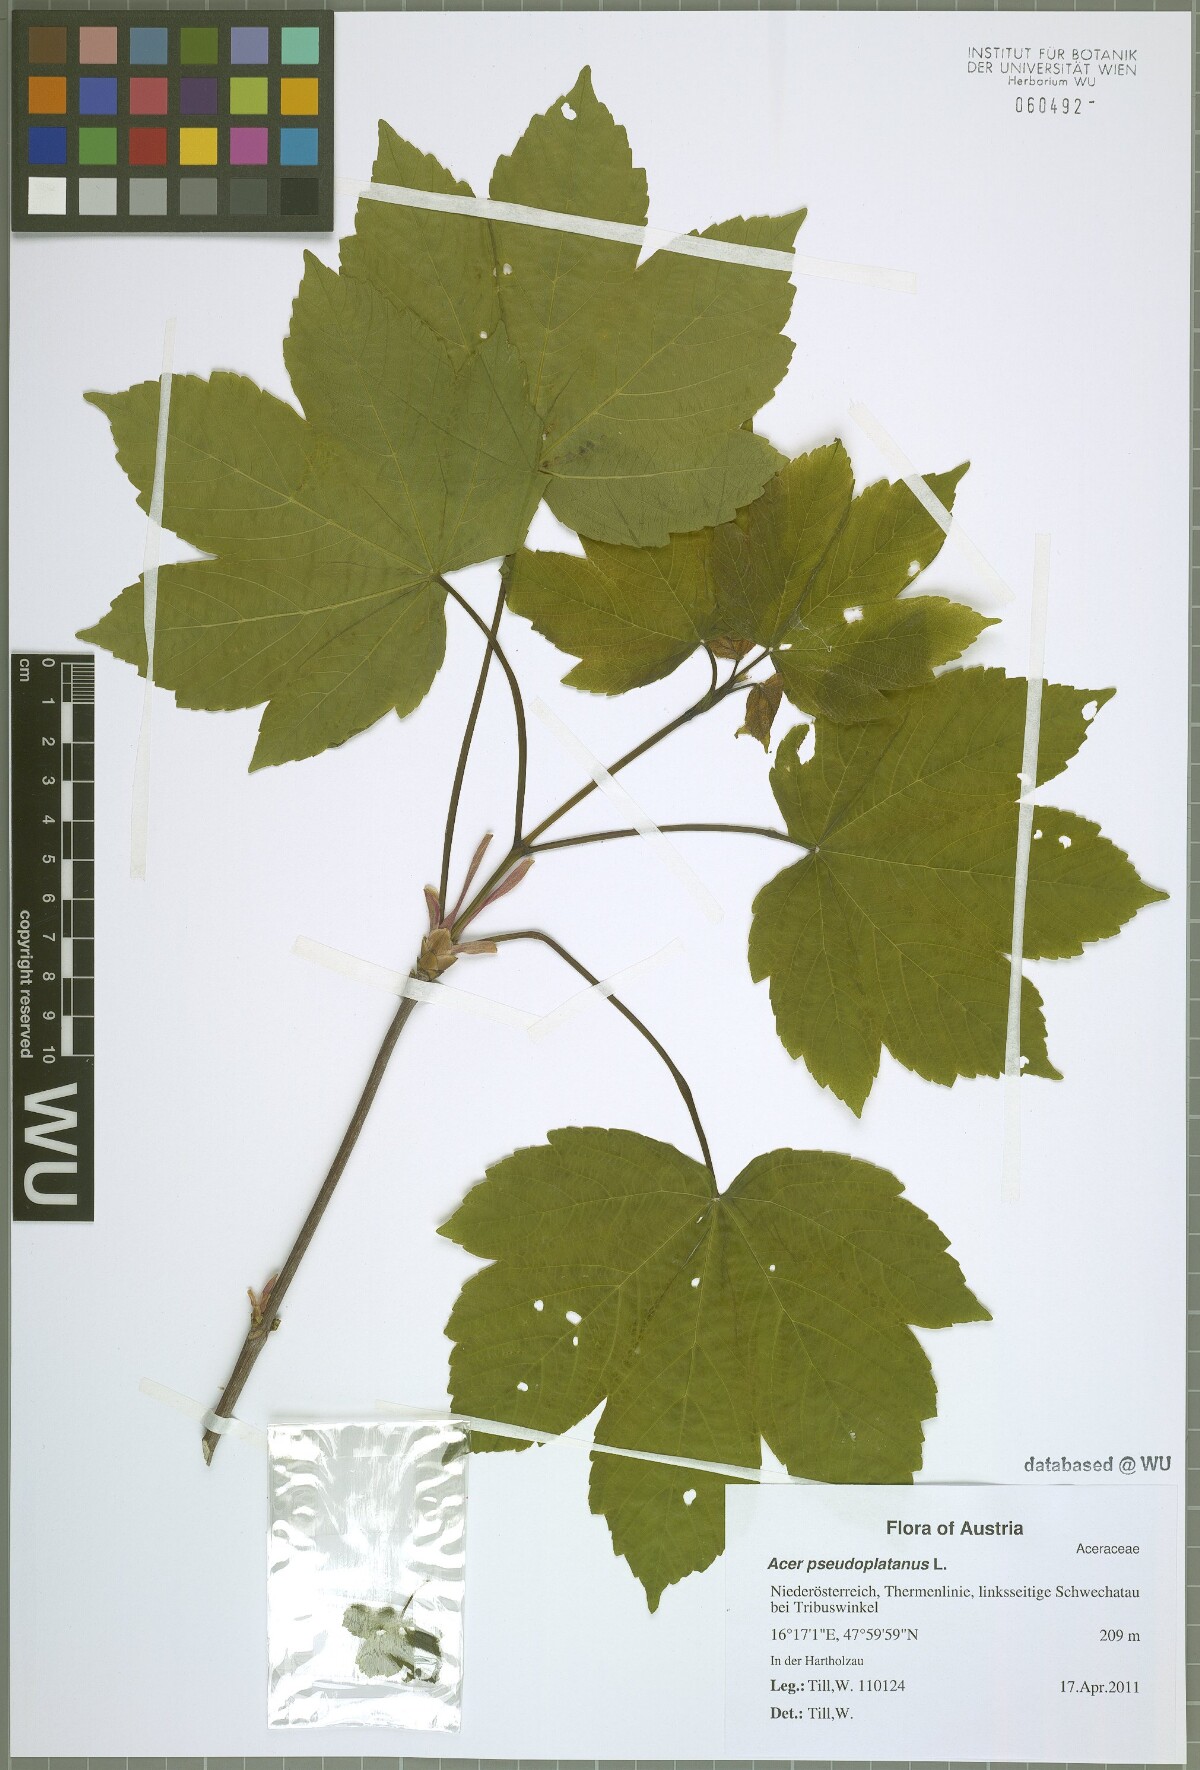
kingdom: Plantae
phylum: Tracheophyta
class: Magnoliopsida
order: Sapindales
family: Sapindaceae
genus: Acer
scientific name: Acer pseudoplatanus
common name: Sycamore
